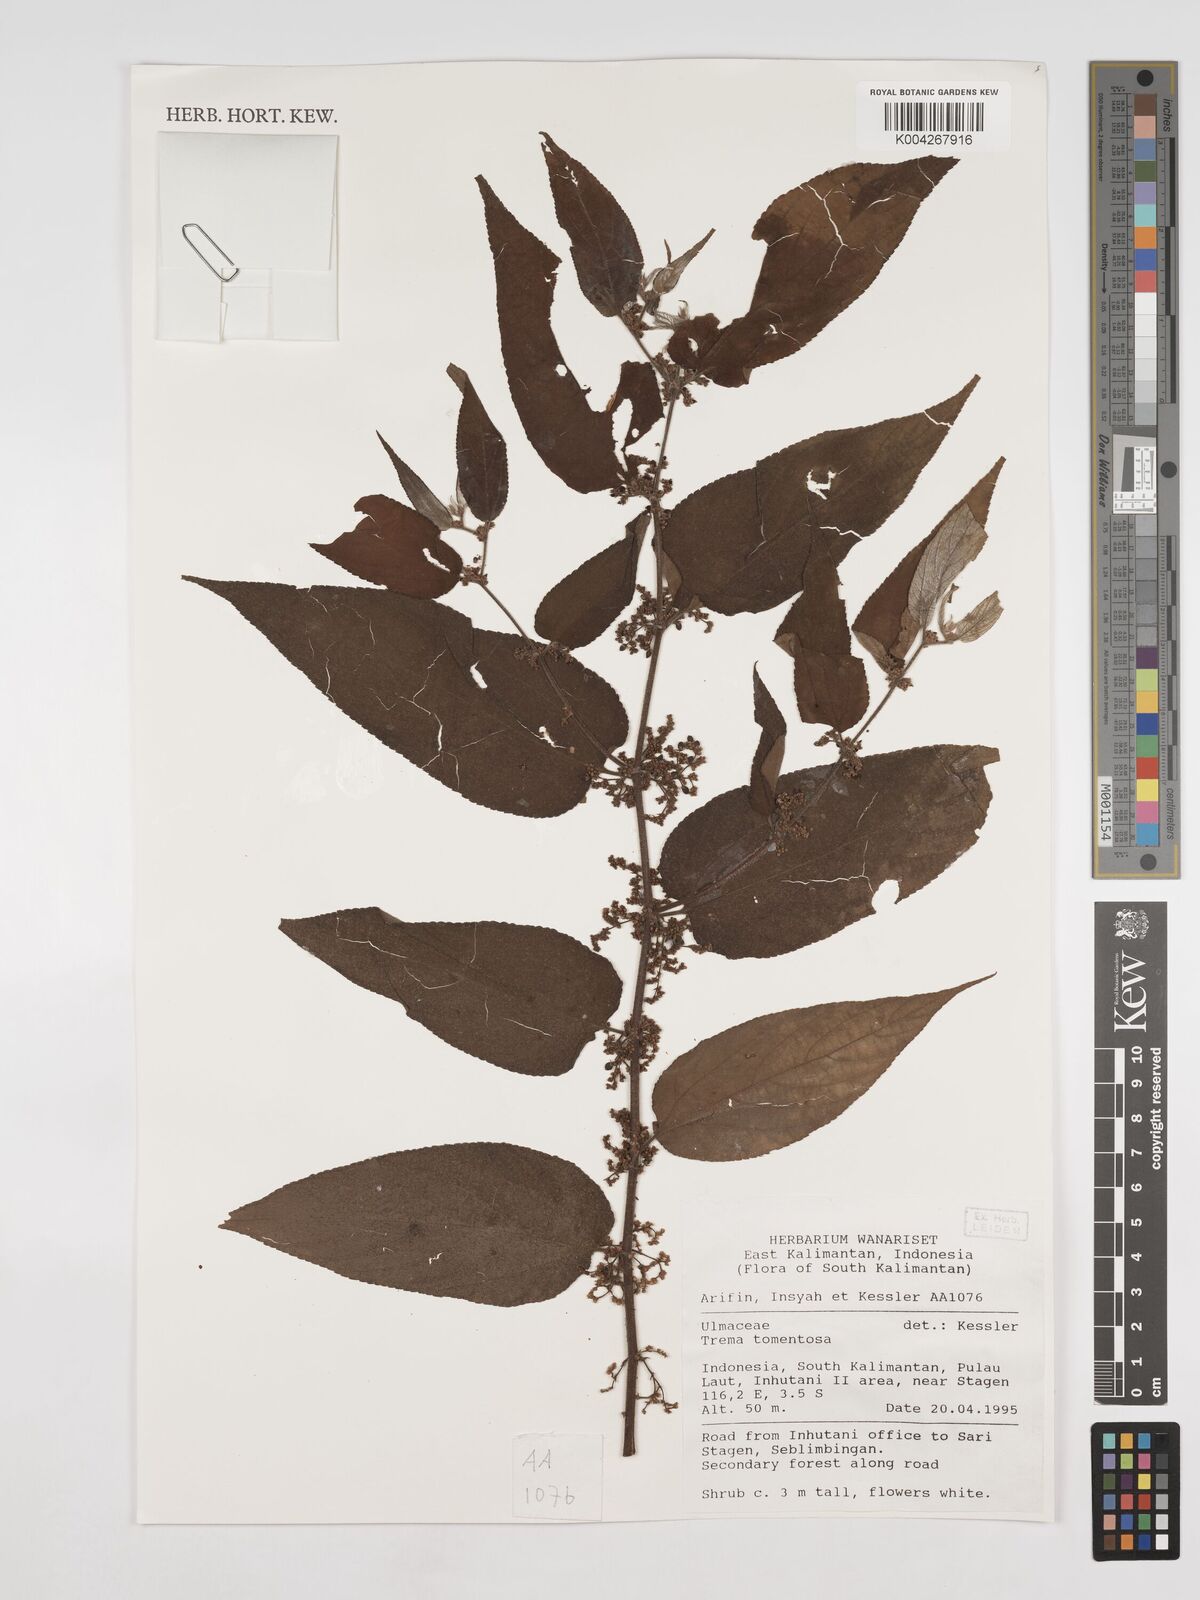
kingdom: Plantae
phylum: Tracheophyta
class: Magnoliopsida
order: Rosales
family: Cannabaceae
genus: Trema
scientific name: Trema tomentosum
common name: Peach-leaf-poisonbush
